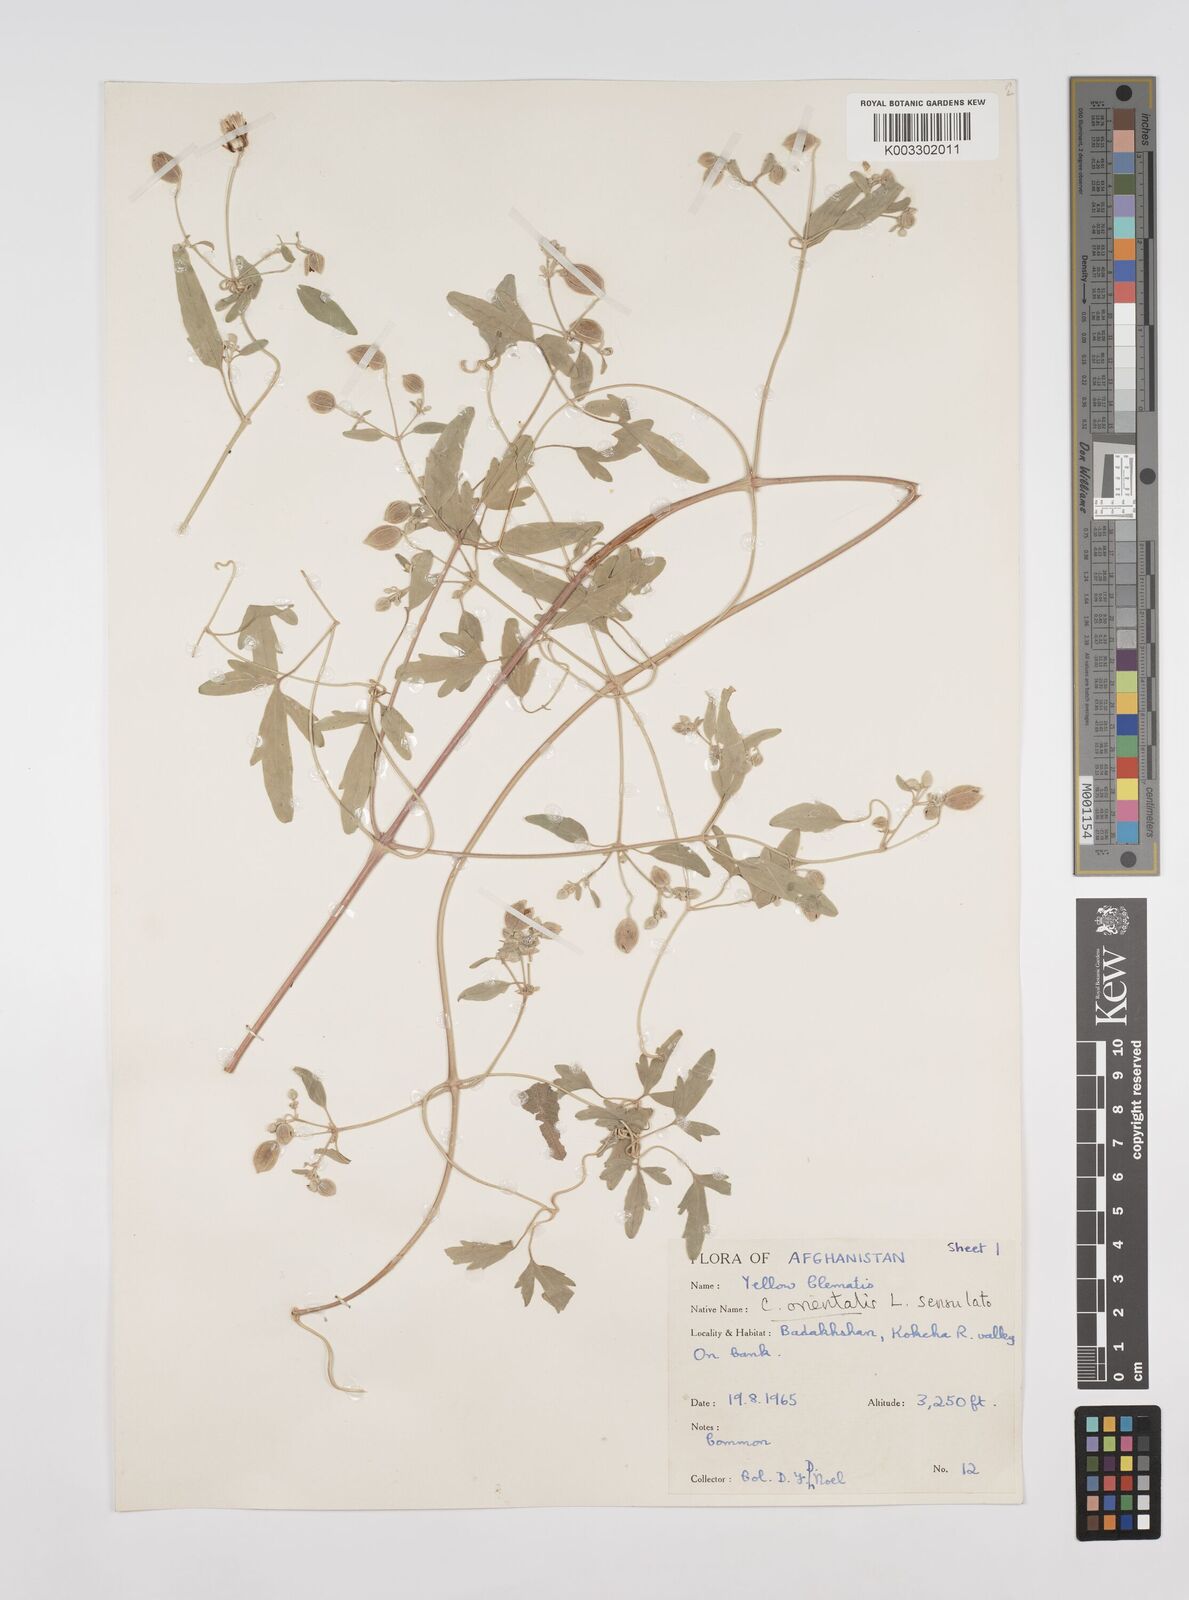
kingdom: Plantae
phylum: Tracheophyta
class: Magnoliopsida
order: Ranunculales
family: Ranunculaceae
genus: Clematis
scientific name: Clematis orientalis
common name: Oriental virgin's-bower
